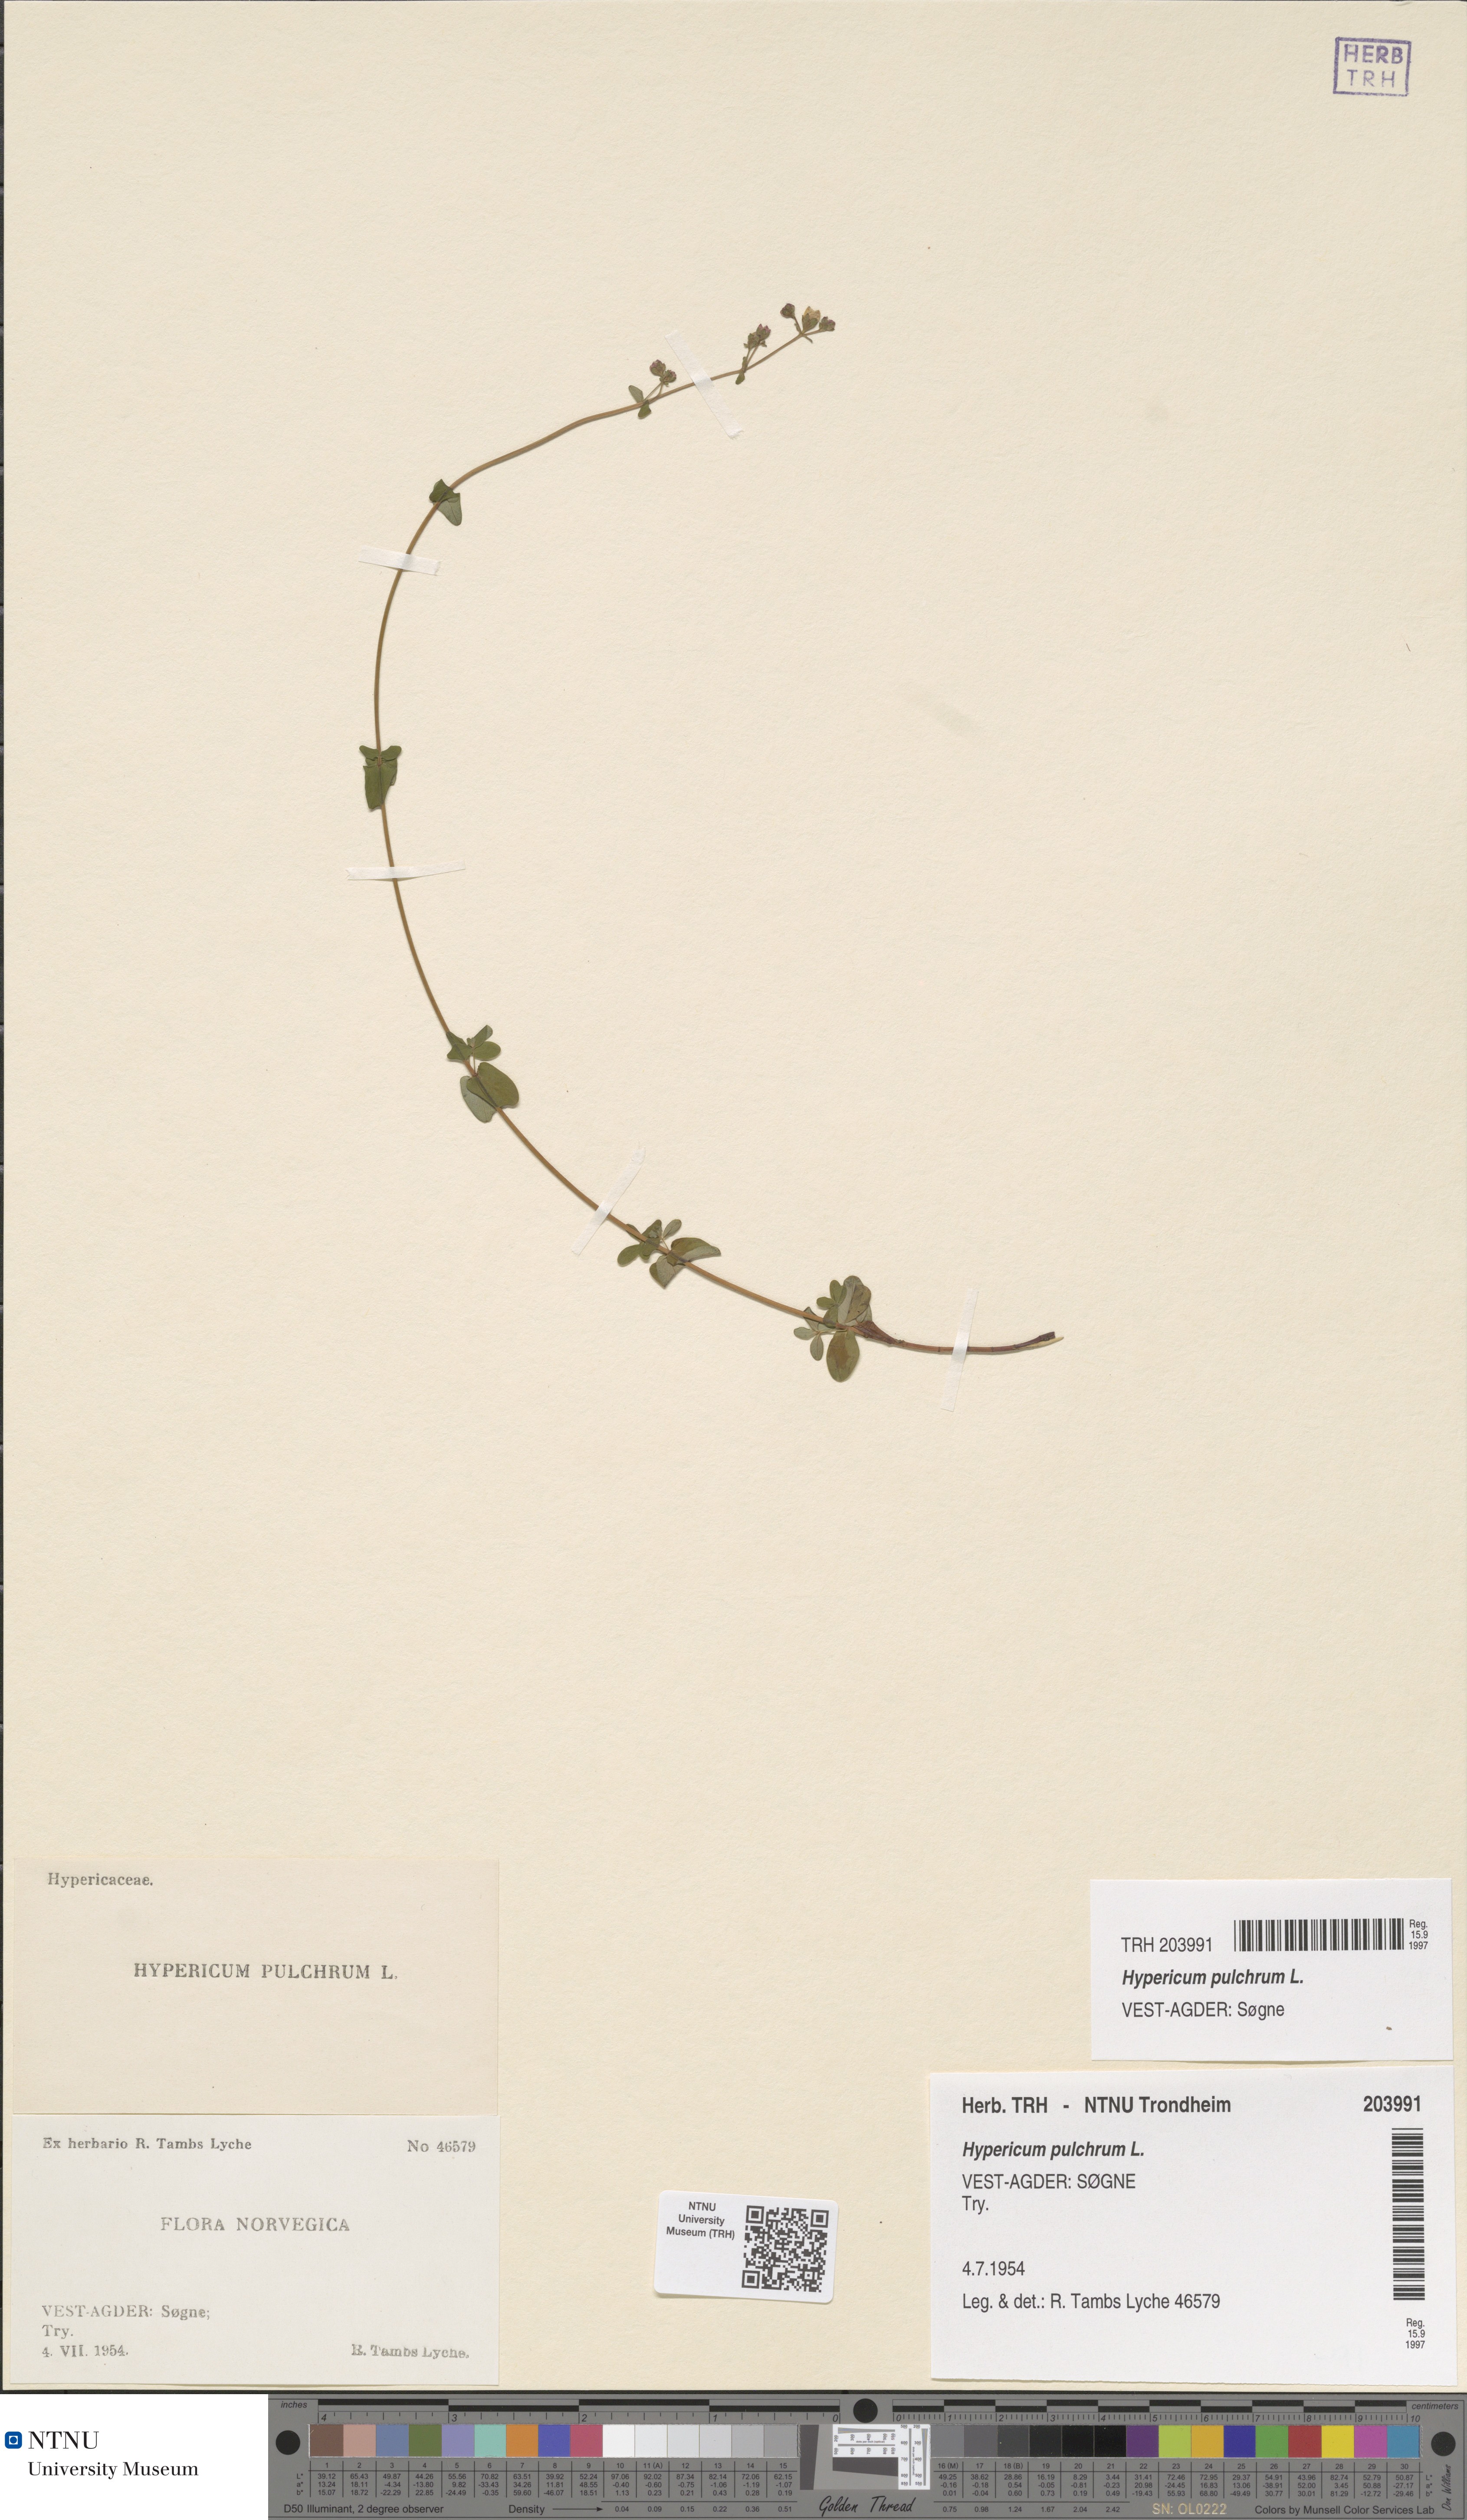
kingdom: Plantae
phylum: Tracheophyta
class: Magnoliopsida
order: Malpighiales
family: Hypericaceae
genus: Hypericum
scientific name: Hypericum pulchrum
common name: Slender st. john's-wort
